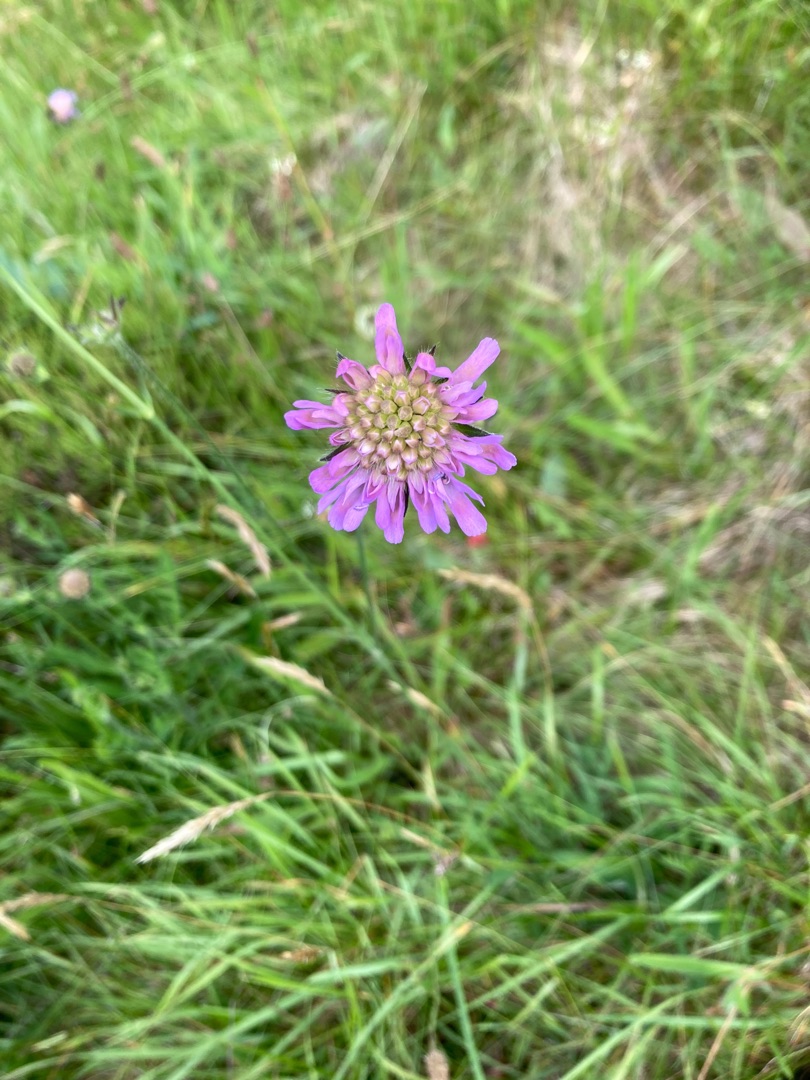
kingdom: Plantae
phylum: Tracheophyta
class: Magnoliopsida
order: Dipsacales
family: Caprifoliaceae
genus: Knautia
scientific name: Knautia arvensis
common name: Blåhat
